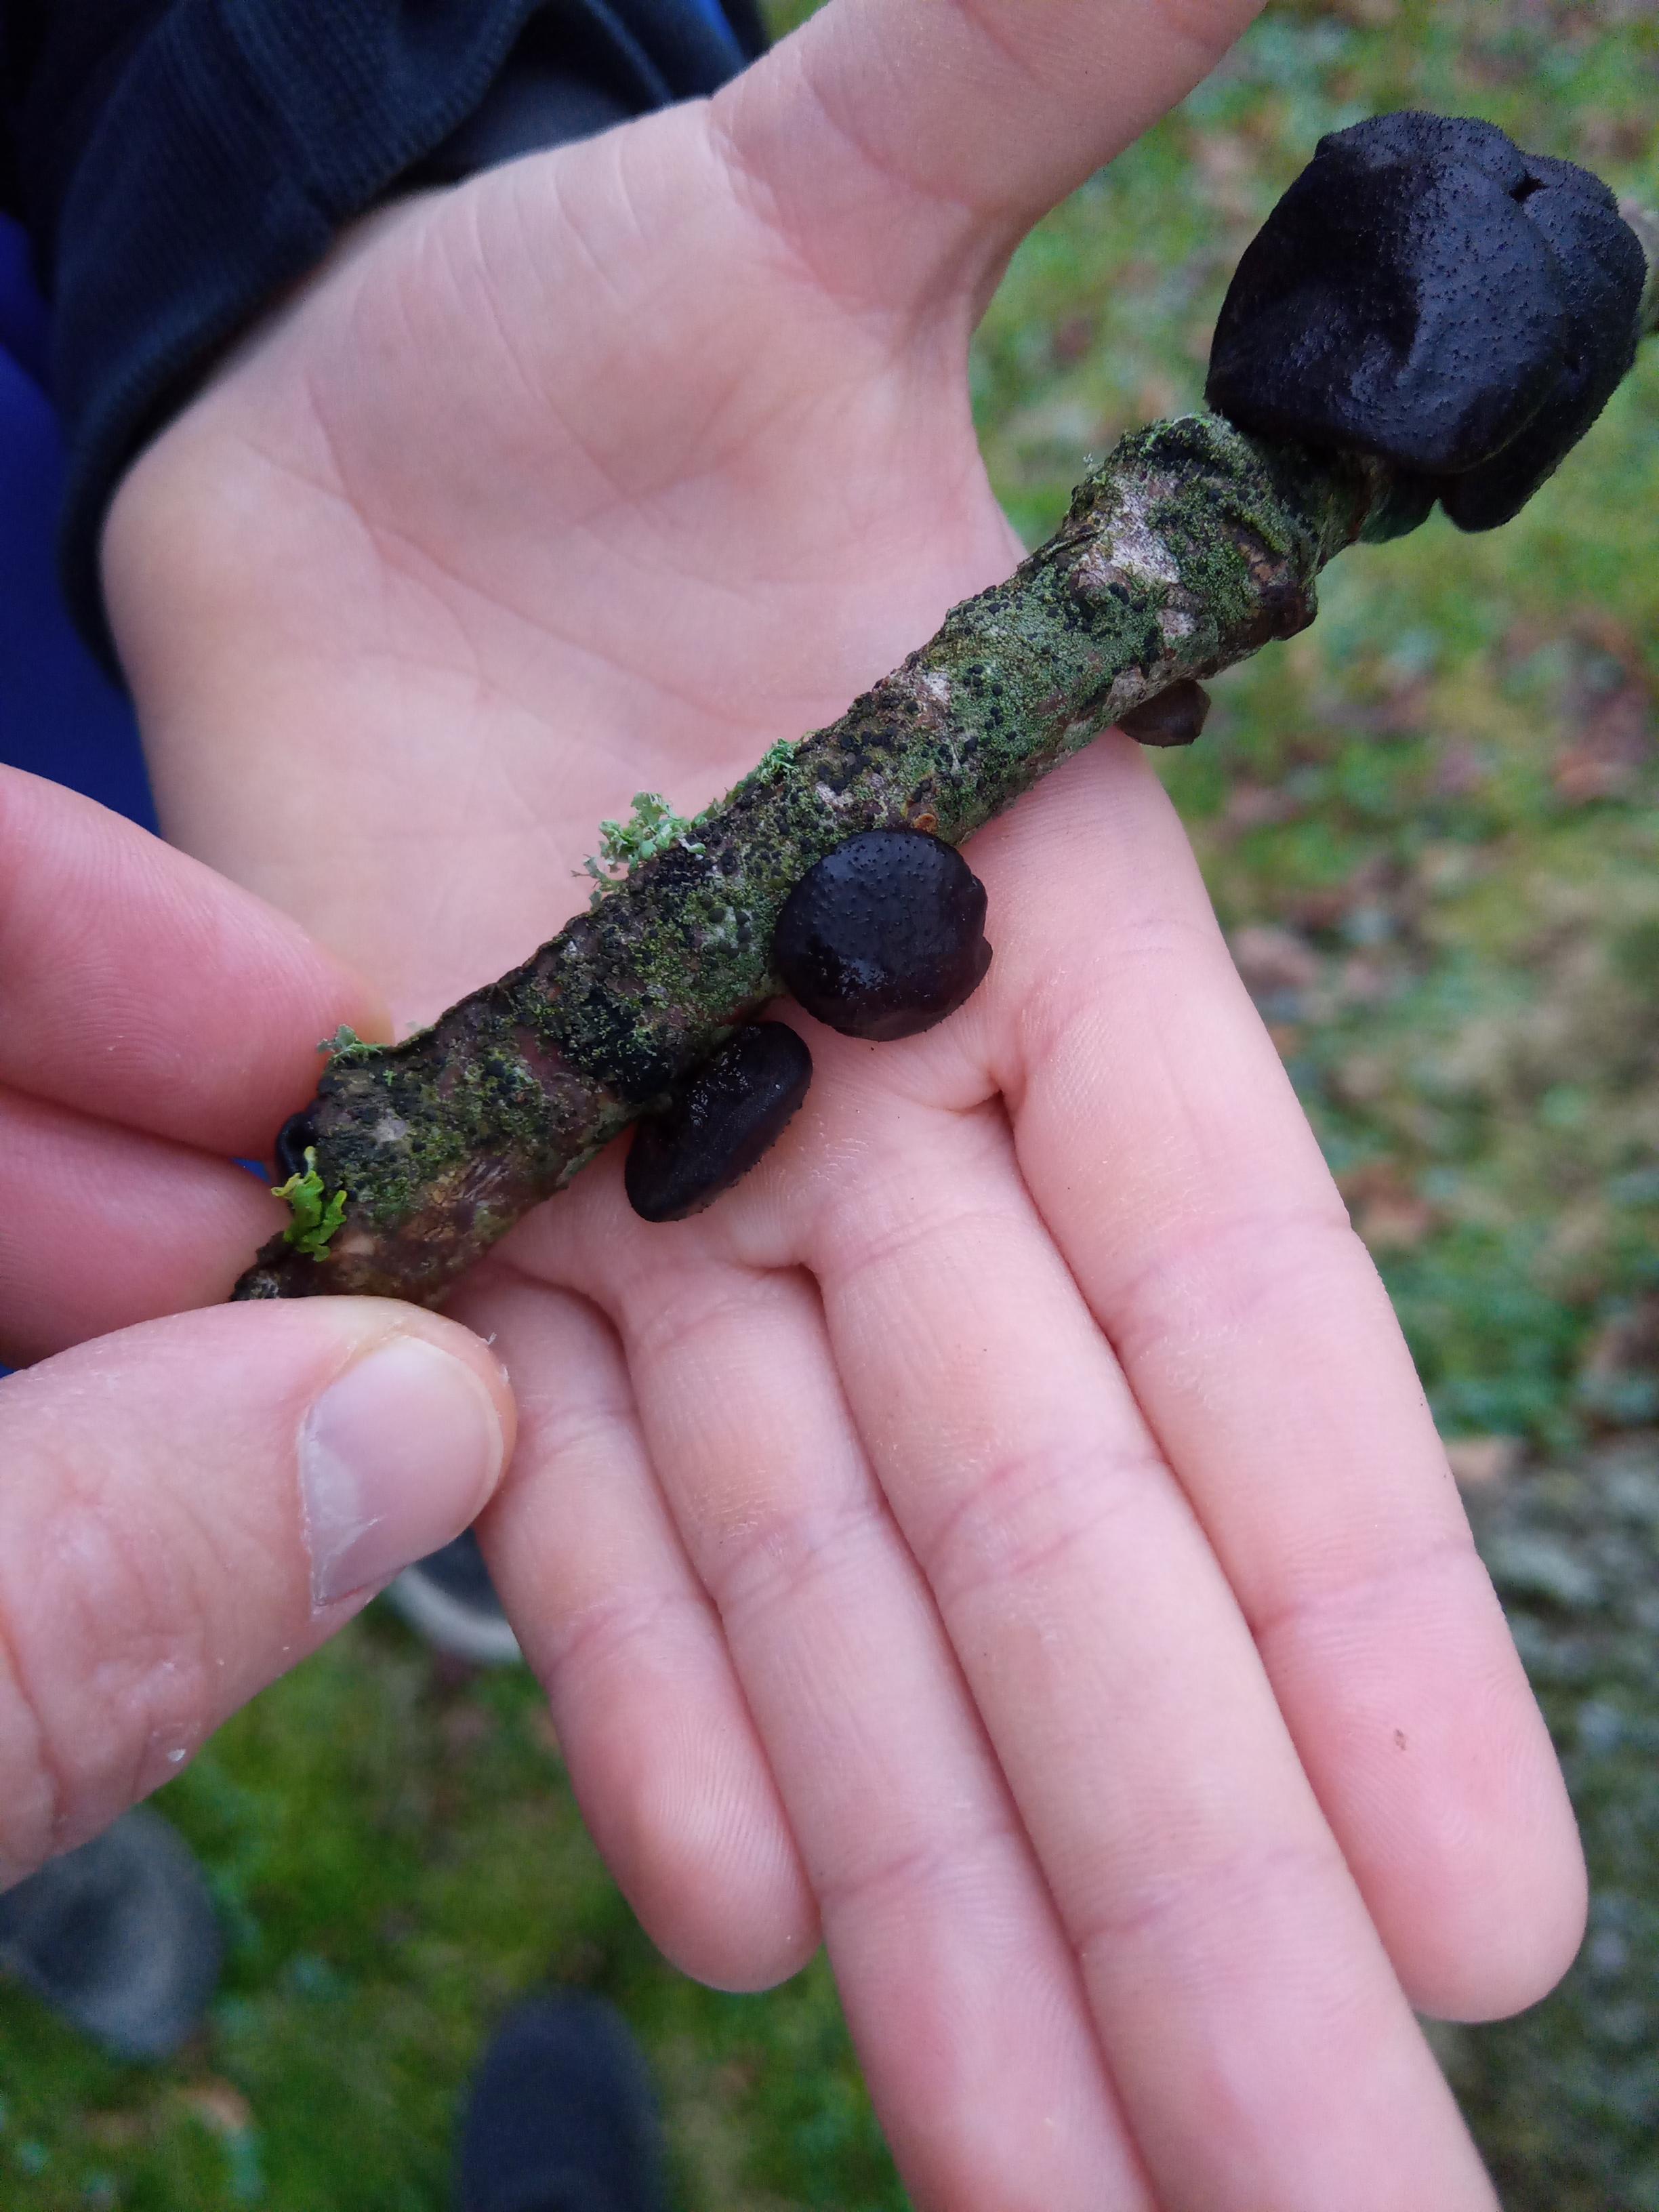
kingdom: Fungi
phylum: Basidiomycota
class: Agaricomycetes
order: Auriculariales
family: Auriculariaceae
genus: Exidia
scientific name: Exidia glandulosa
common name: ege-bævretop
